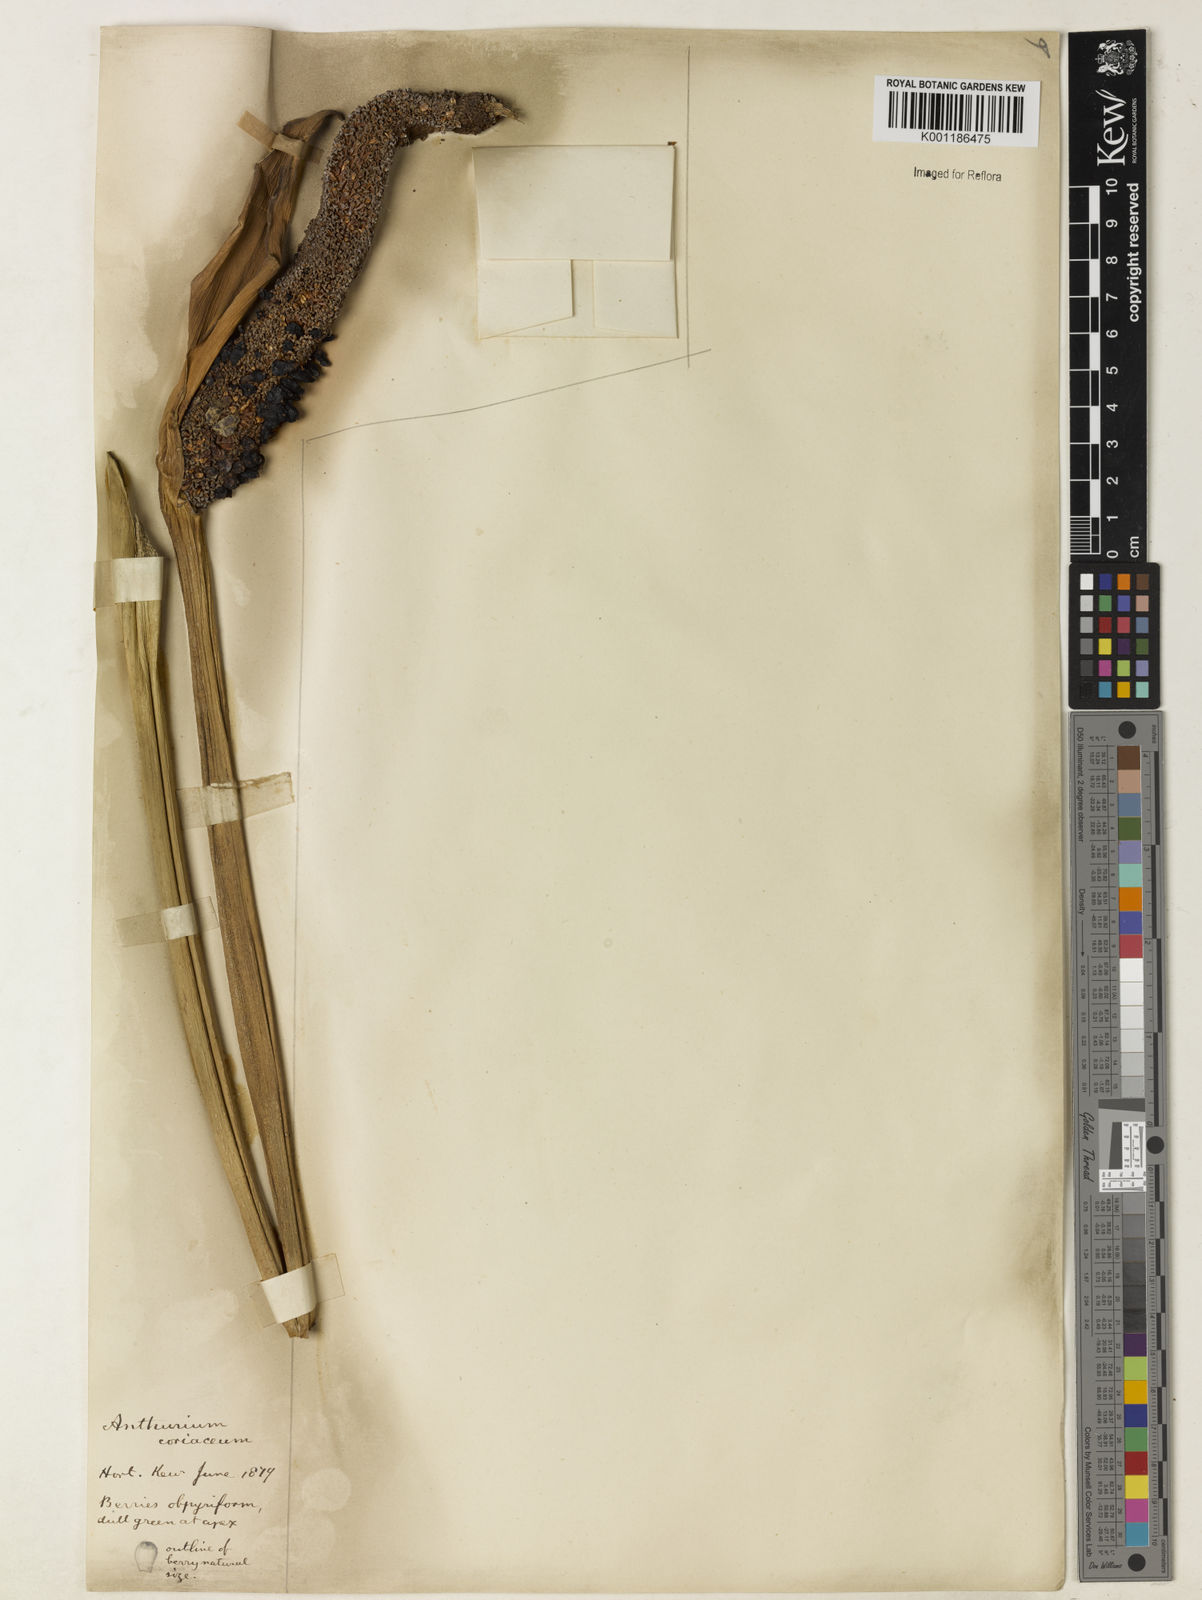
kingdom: Plantae
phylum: Tracheophyta
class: Liliopsida
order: Alismatales
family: Araceae
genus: Anthurium
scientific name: Anthurium coriaceum
